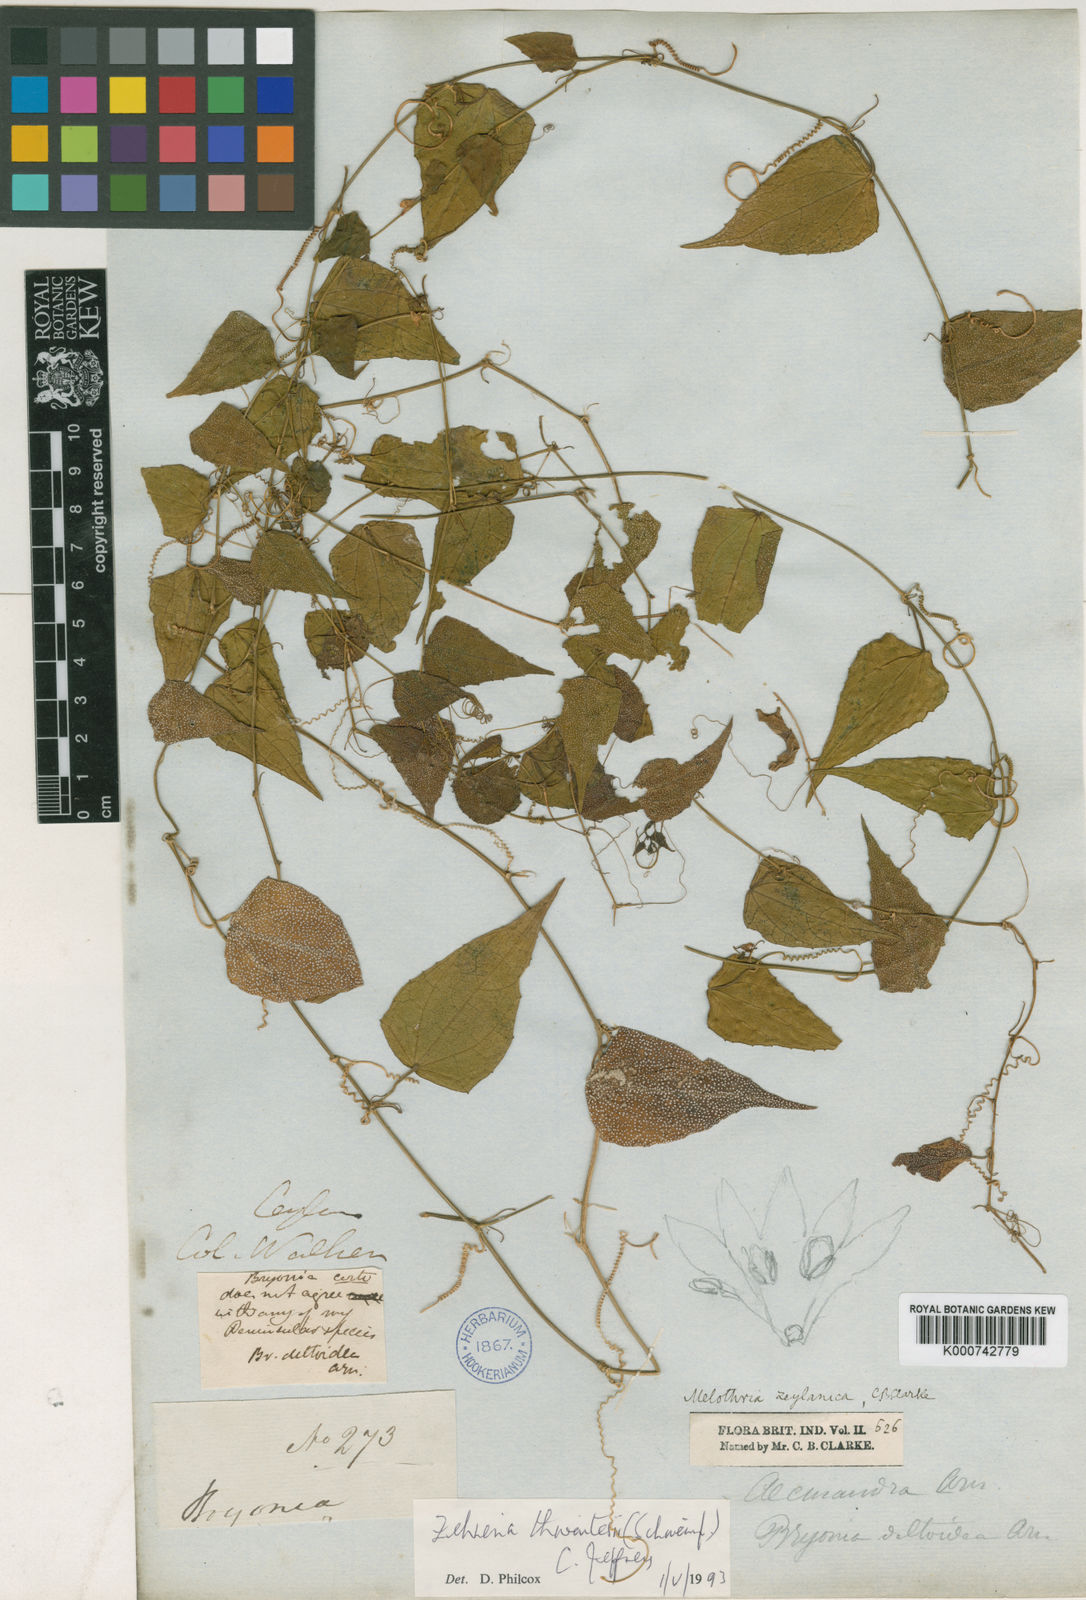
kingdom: Plantae
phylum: Tracheophyta
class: Magnoliopsida
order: Cucurbitales
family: Cucurbitaceae
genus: Zehneria
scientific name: Zehneria thwaitesii
